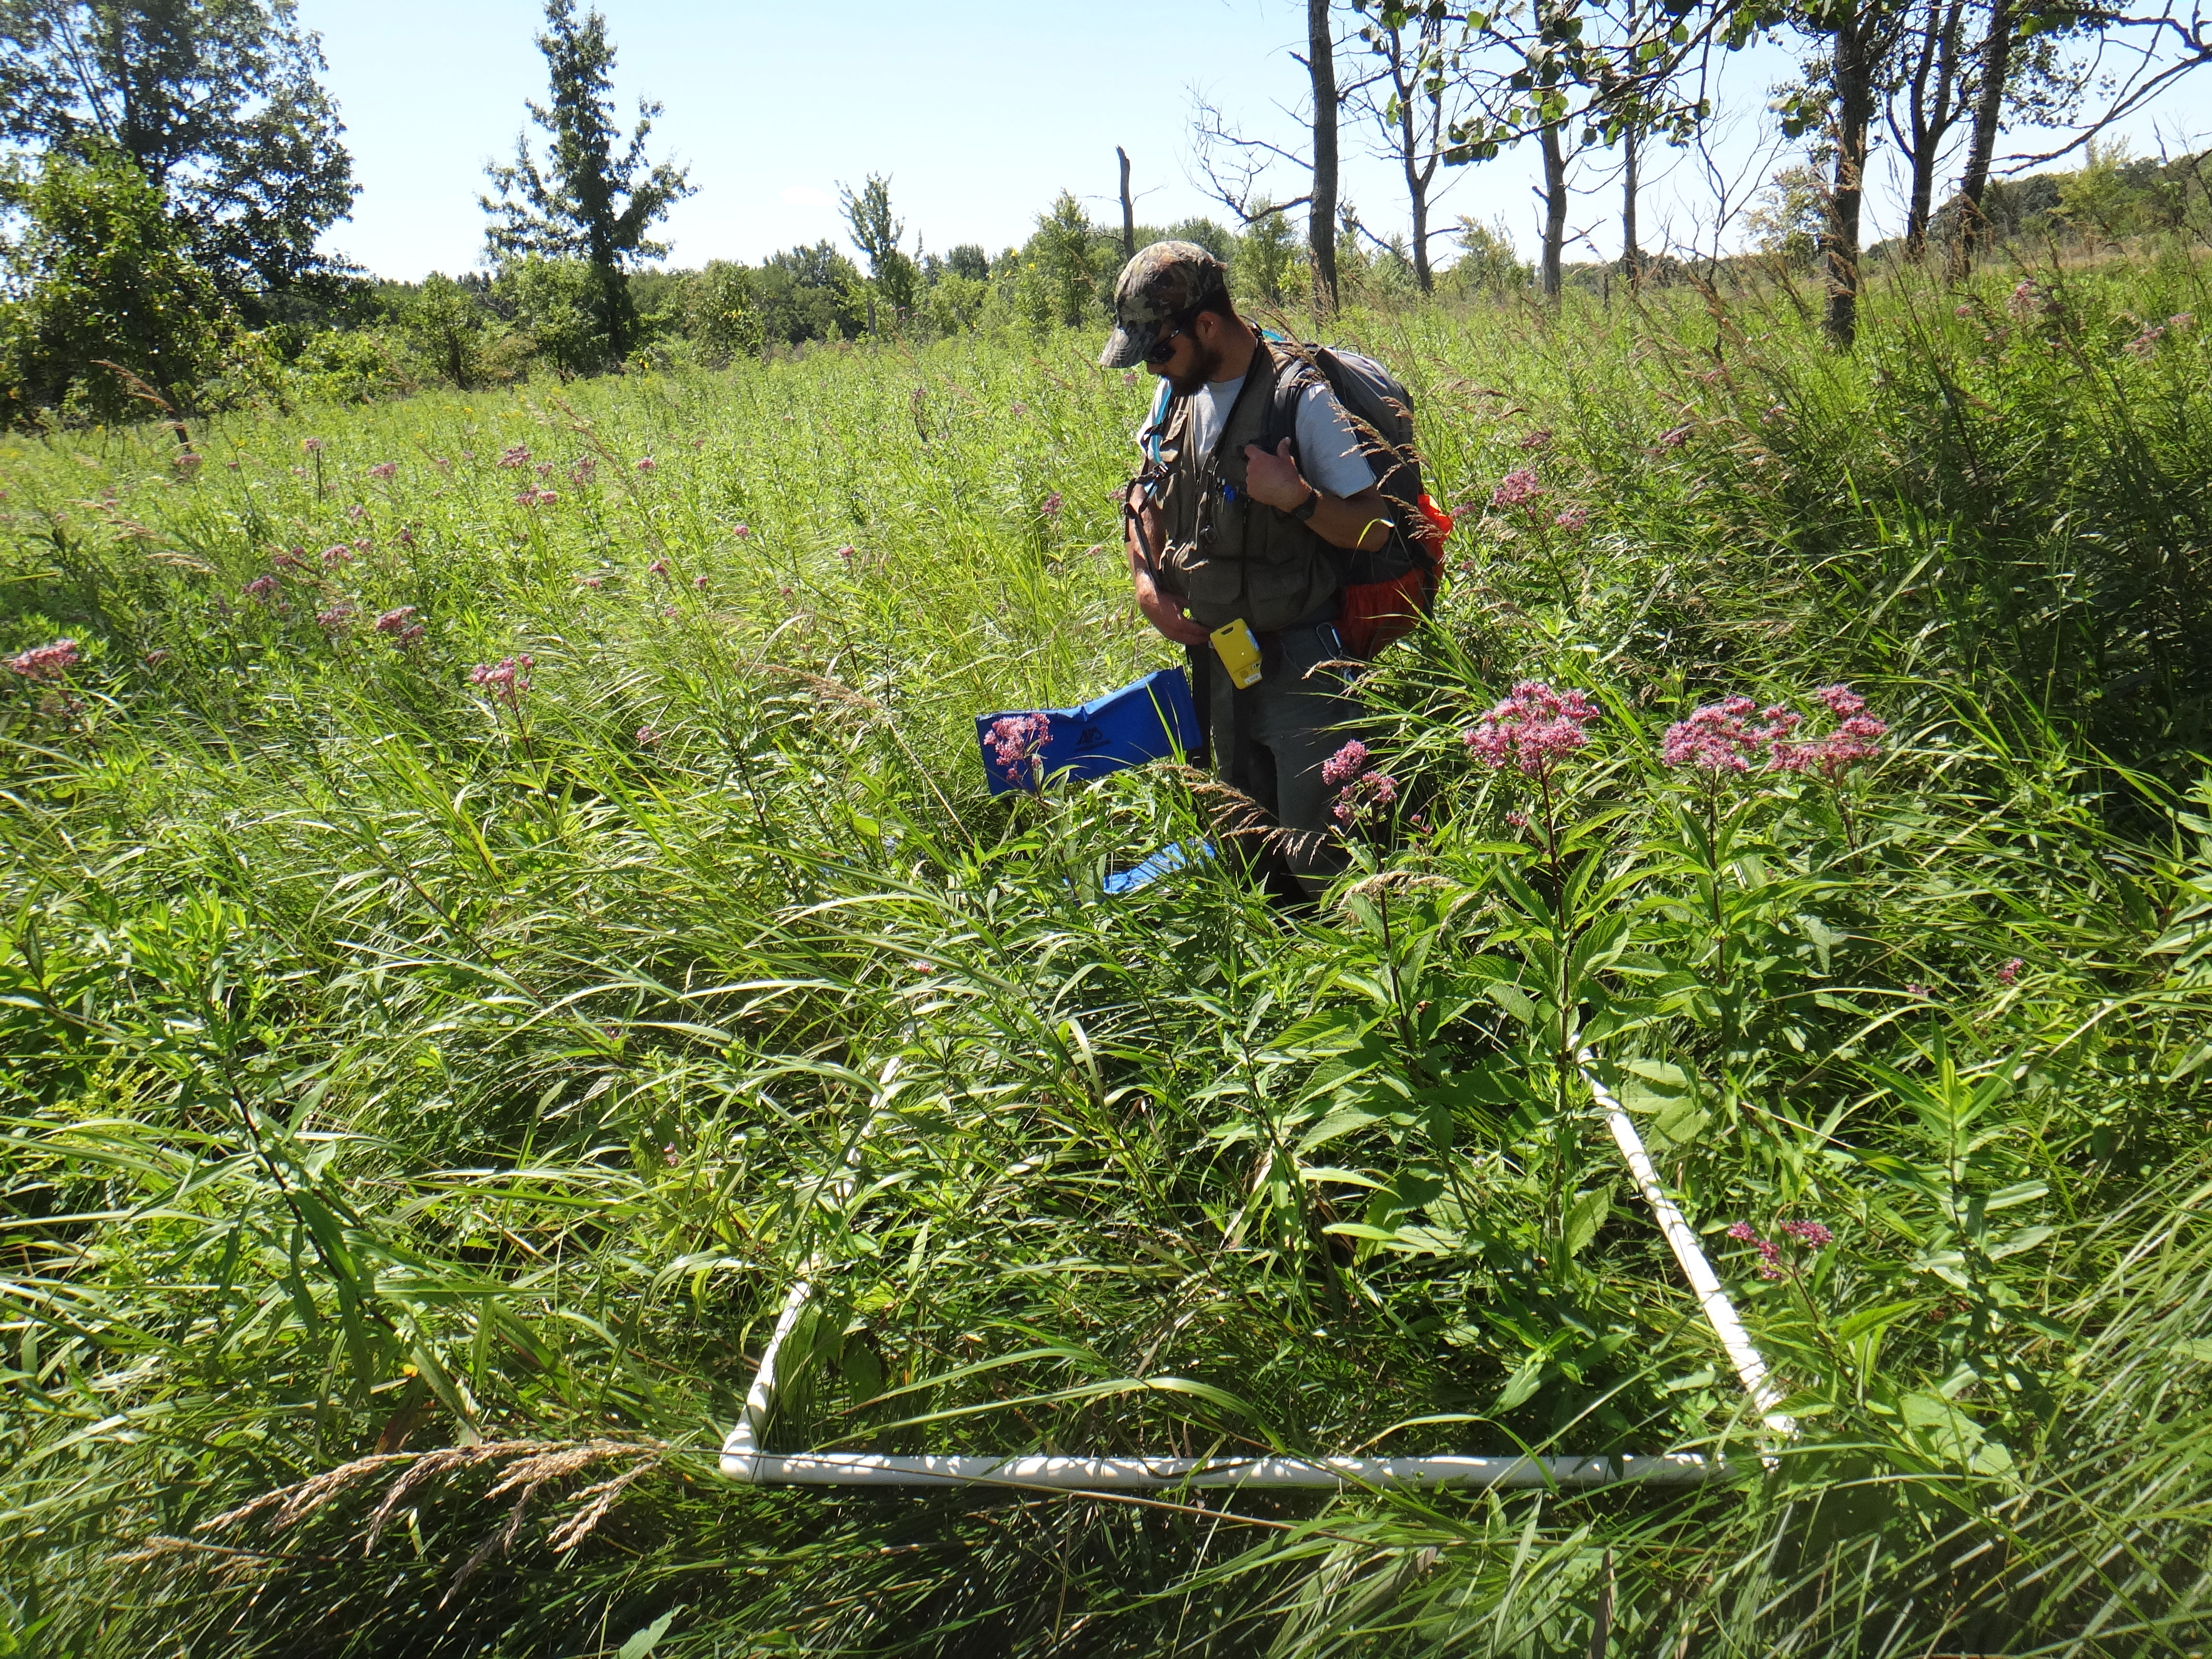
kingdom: Plantae
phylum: Tracheophyta
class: Liliopsida
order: Poales
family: Poaceae
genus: Bromus
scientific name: Bromus ciliatus
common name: Fringe brome
